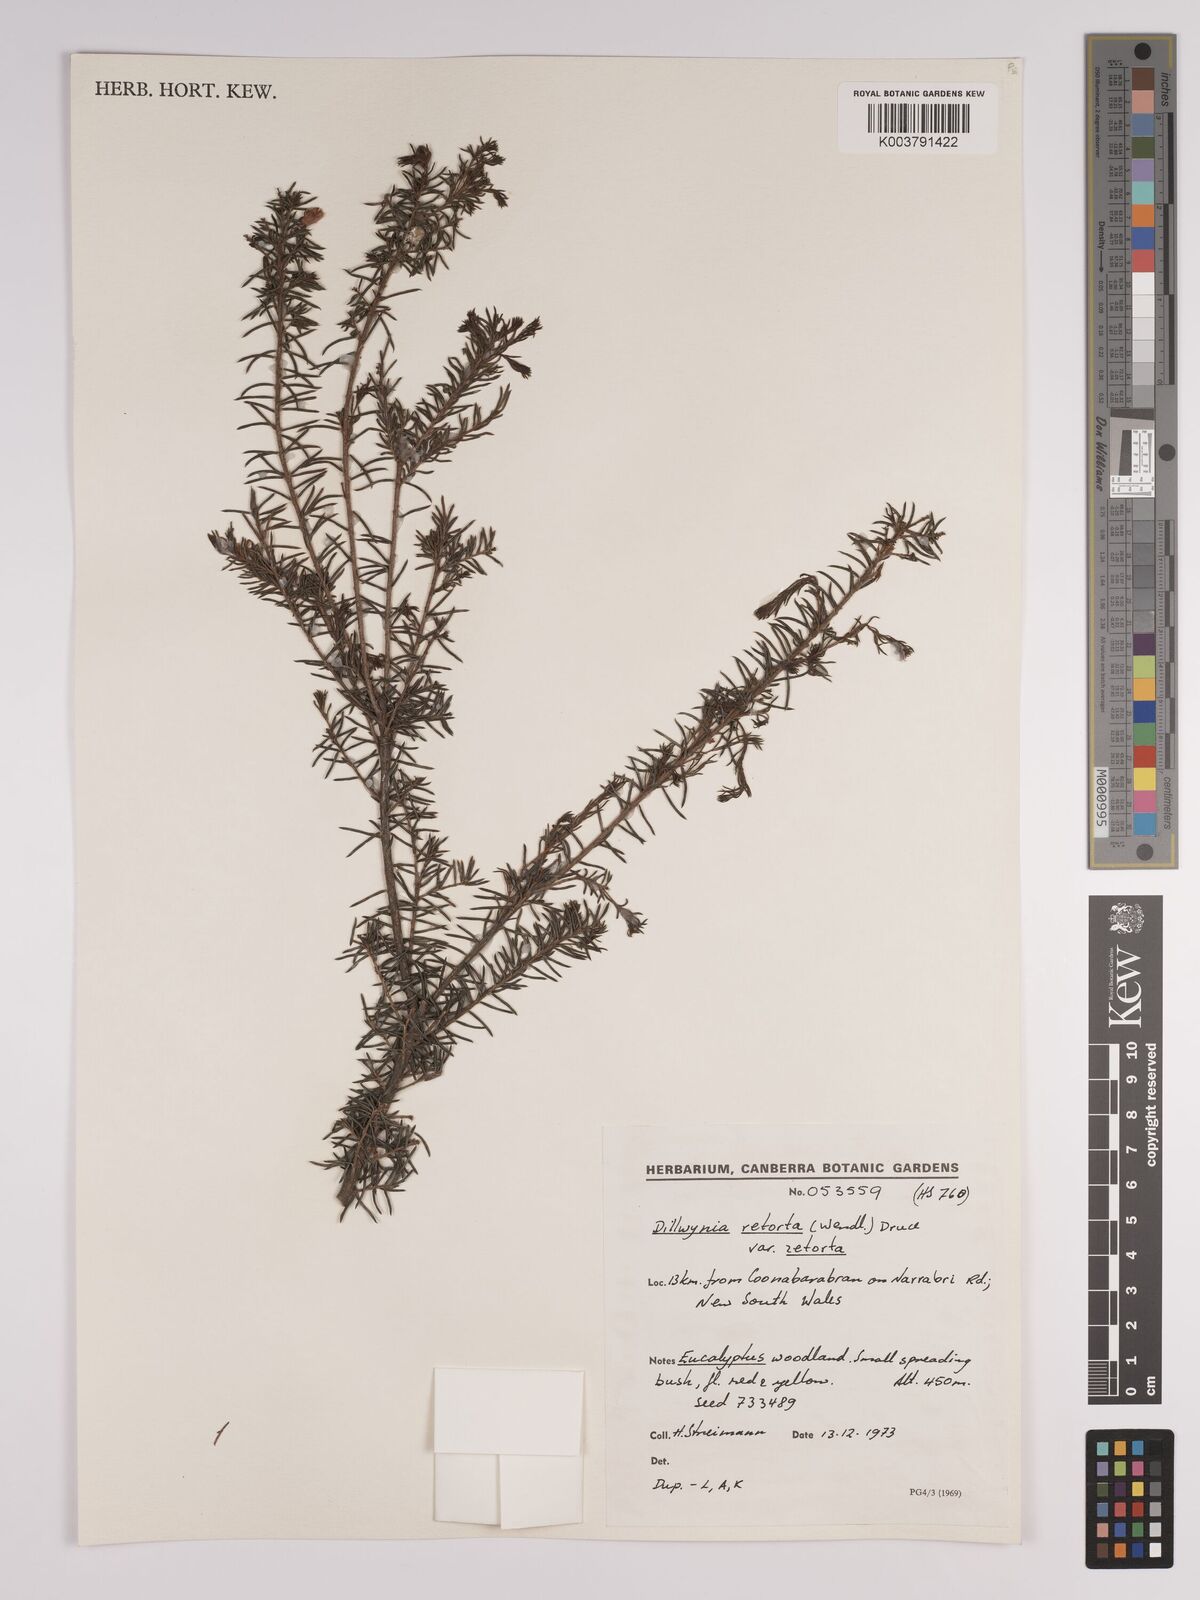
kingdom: Plantae
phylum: Tracheophyta
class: Magnoliopsida
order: Fabales
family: Fabaceae
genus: Dillwynia
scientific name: Dillwynia retorta
